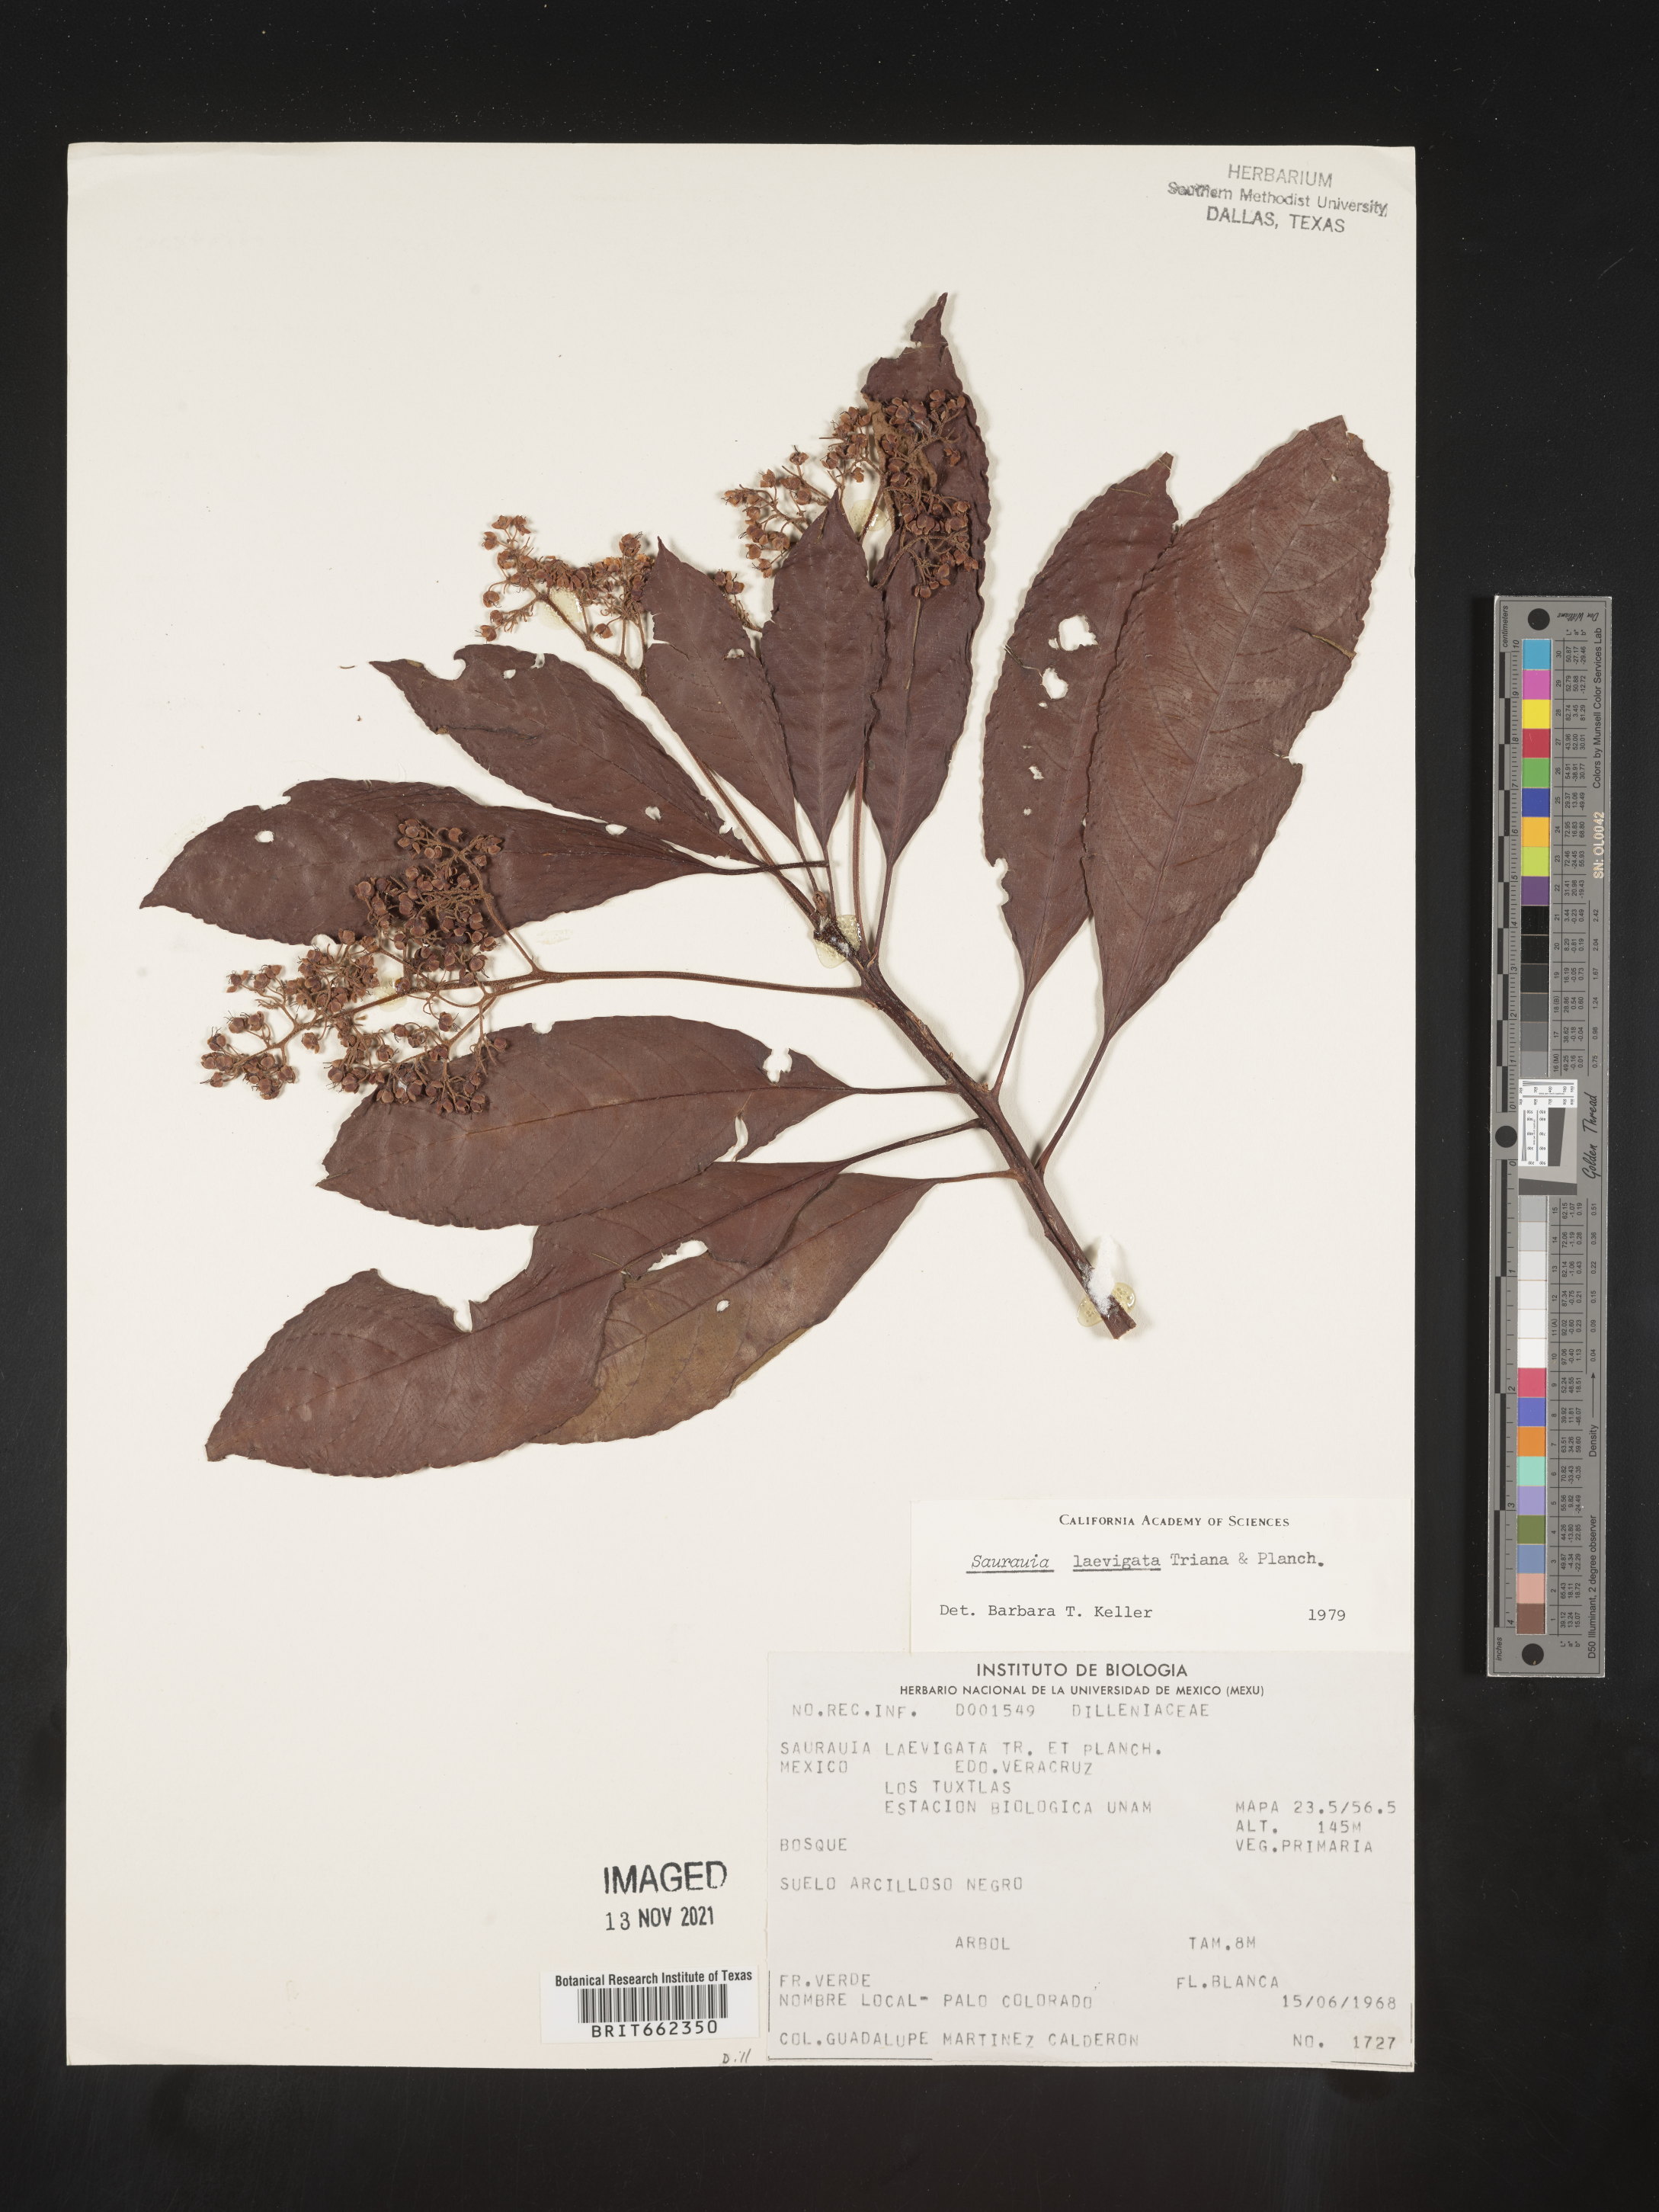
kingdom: Plantae
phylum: Tracheophyta
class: Magnoliopsida
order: Ericales
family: Actinidiaceae
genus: Saurauia
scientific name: Saurauia
